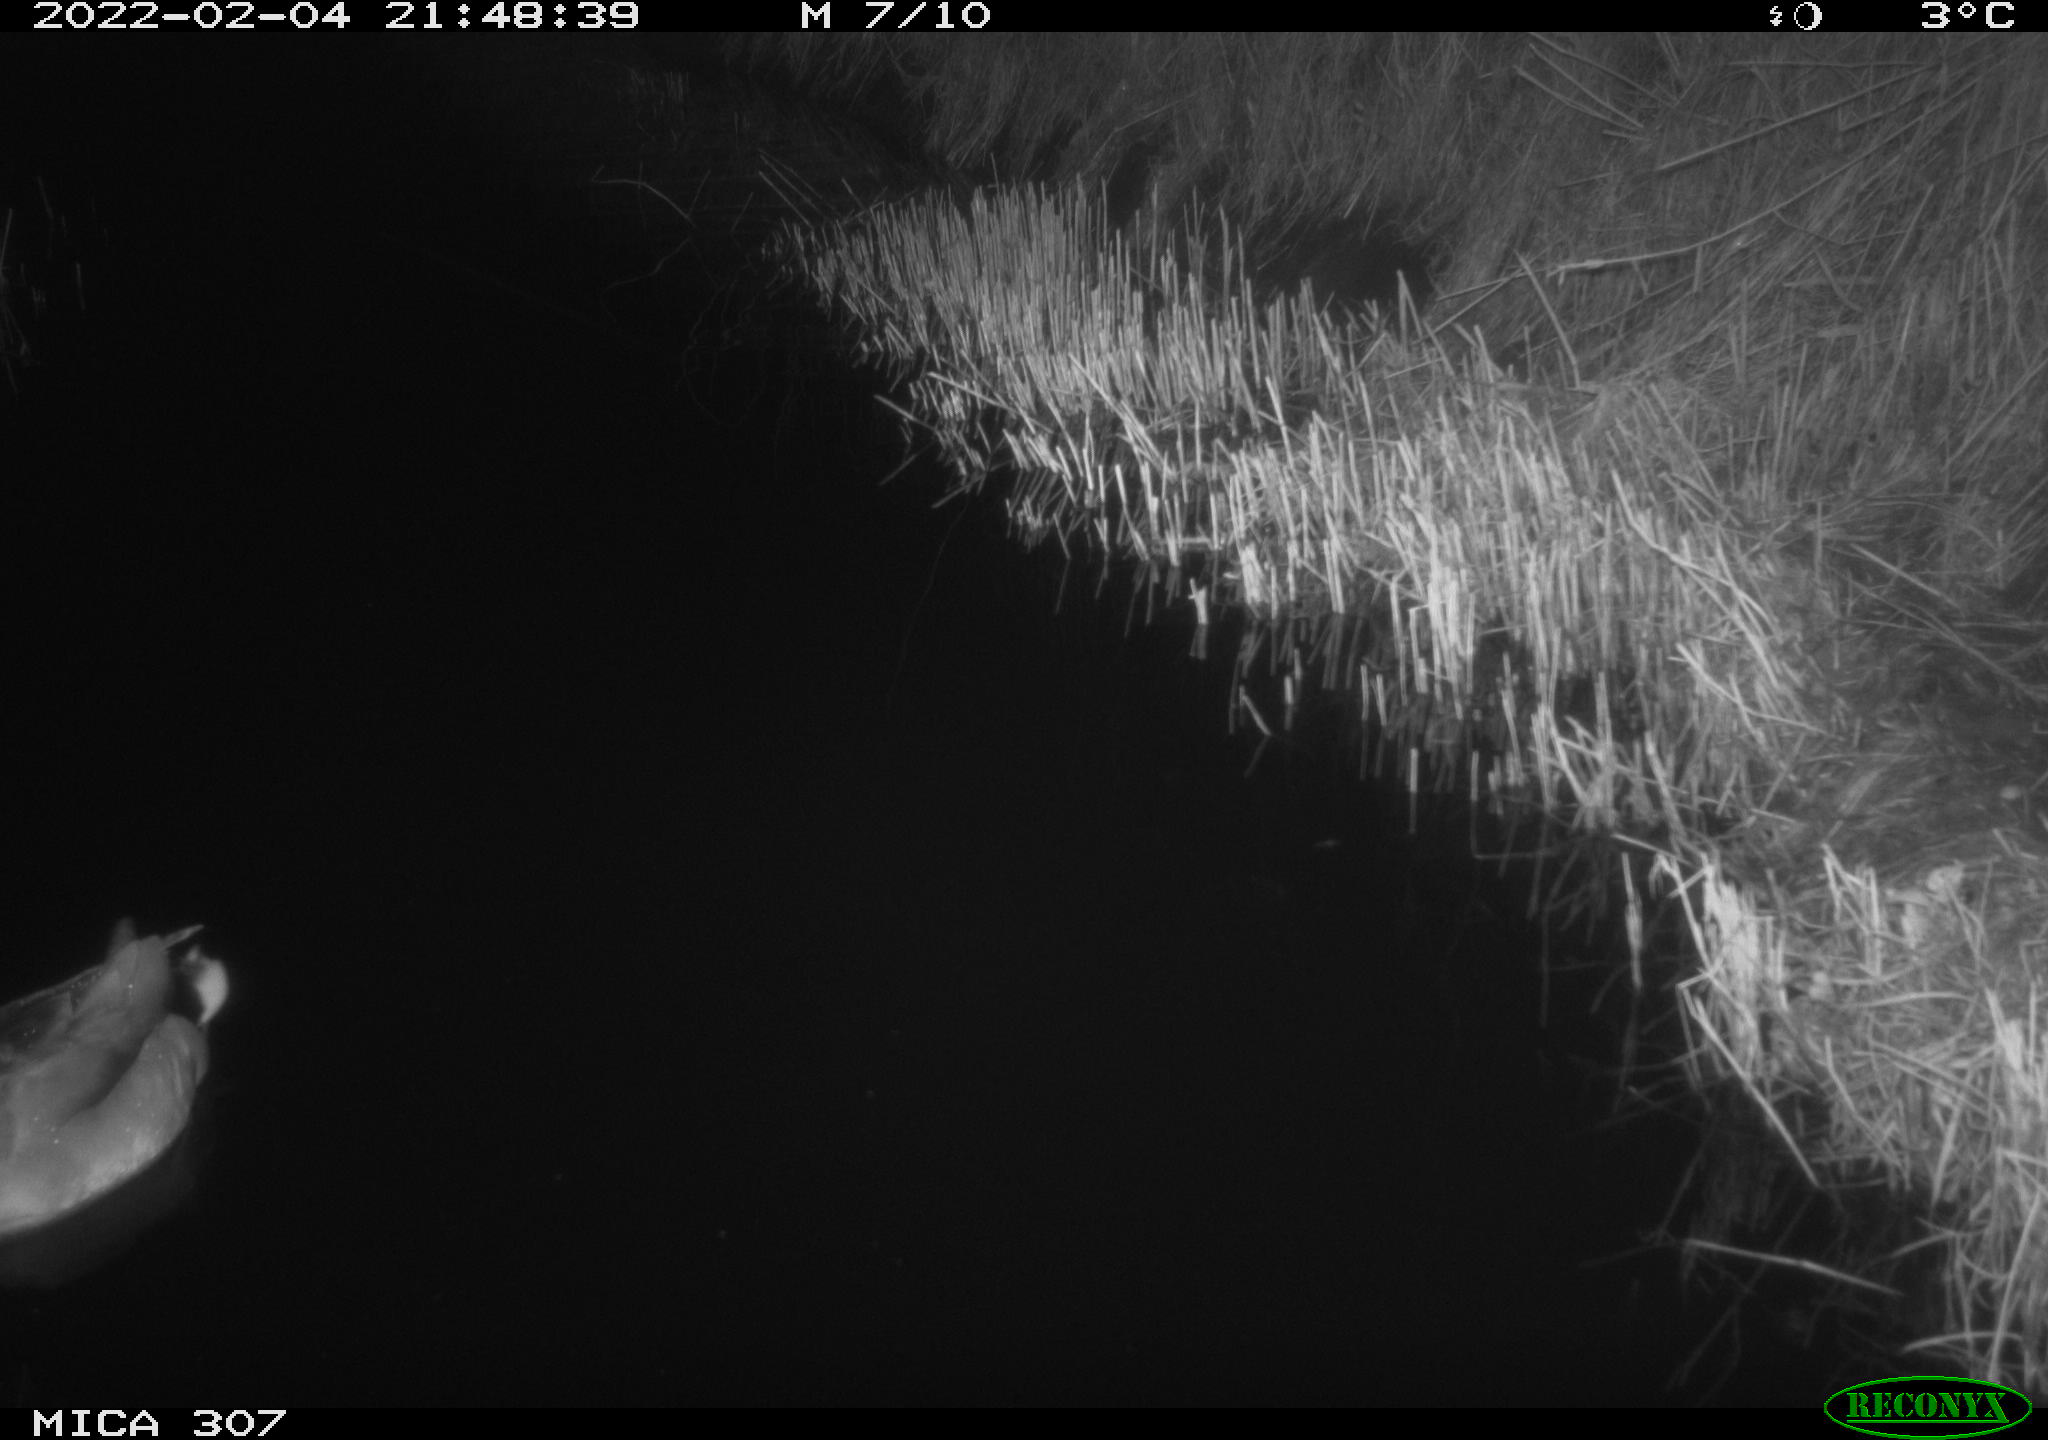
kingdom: Animalia
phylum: Chordata
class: Aves
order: Anseriformes
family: Anatidae
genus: Anas
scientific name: Anas platyrhynchos
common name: Mallard
